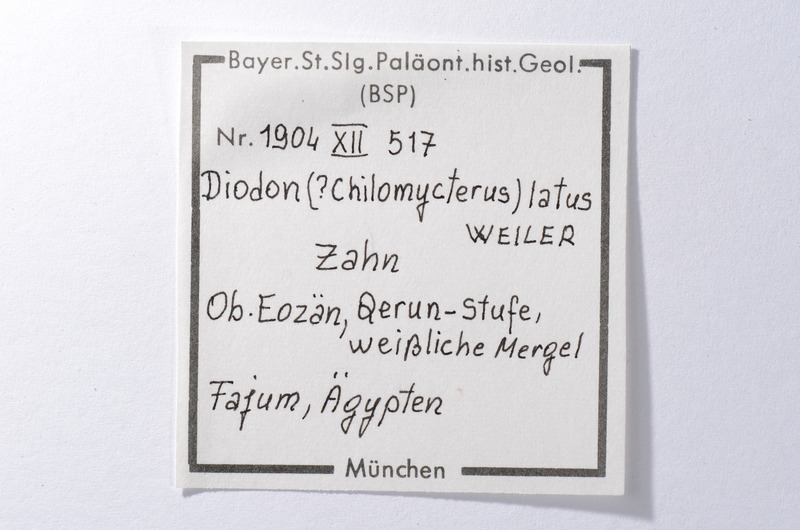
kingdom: Animalia
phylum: Chordata
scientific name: Chordata
